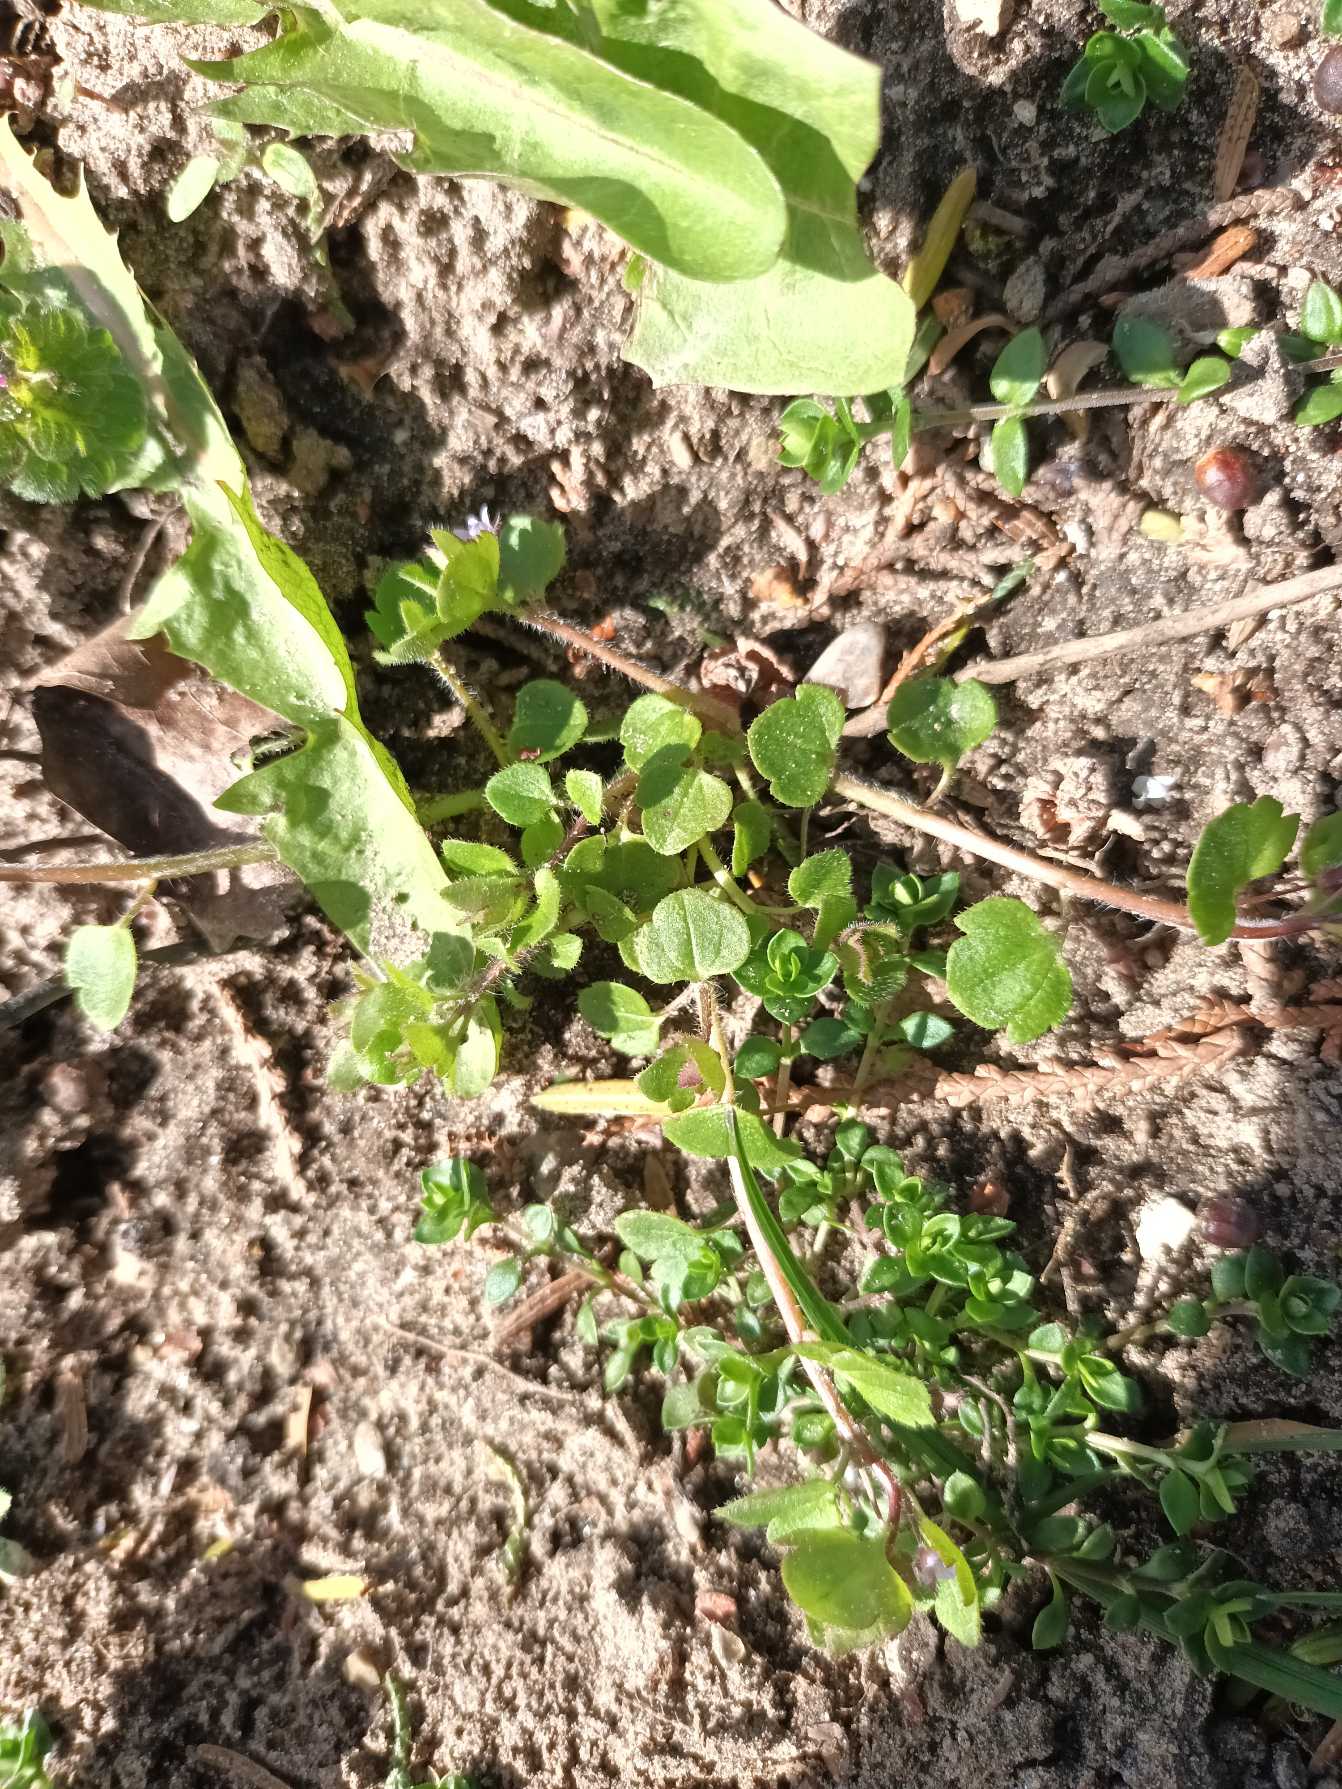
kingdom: Plantae
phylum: Tracheophyta
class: Magnoliopsida
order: Lamiales
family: Plantaginaceae
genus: Veronica
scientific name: Veronica sublobata
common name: Krat-ærenpris
